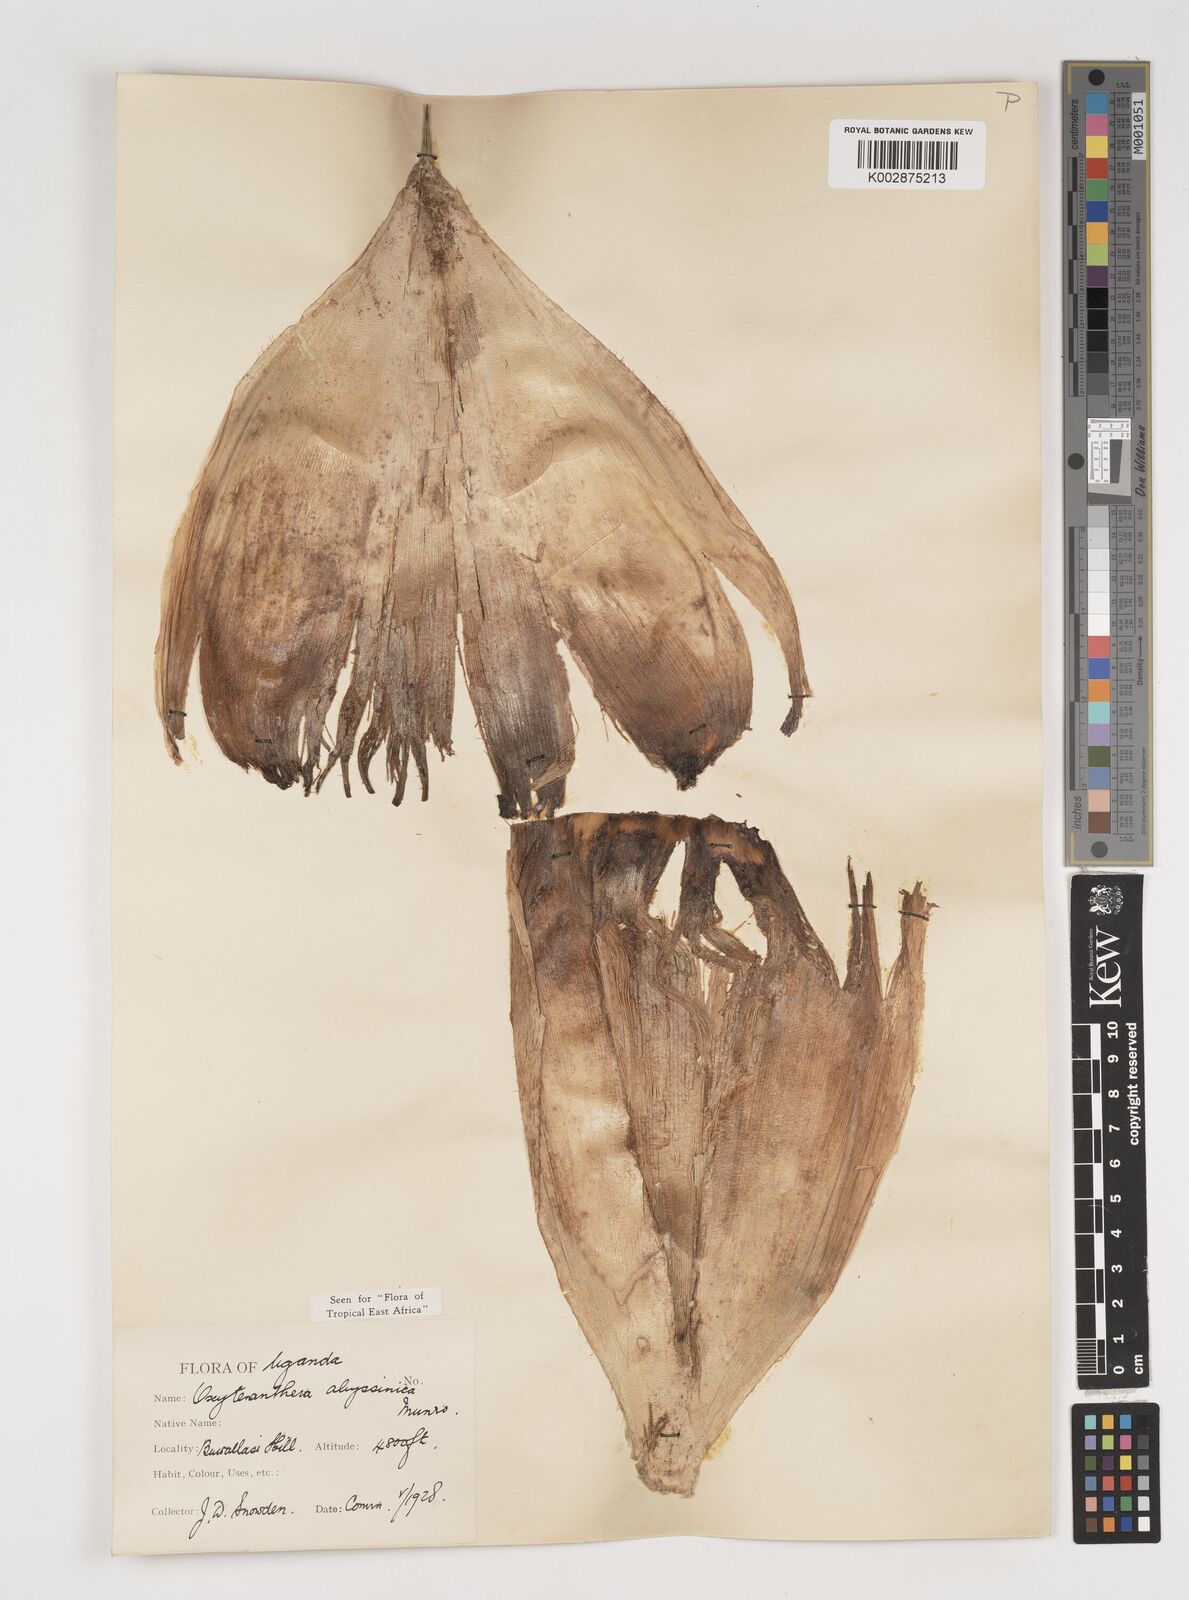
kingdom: Plantae
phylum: Tracheophyta
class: Liliopsida
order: Poales
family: Poaceae
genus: Oxytenanthera
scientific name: Oxytenanthera abyssinica
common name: Wine bamboo
